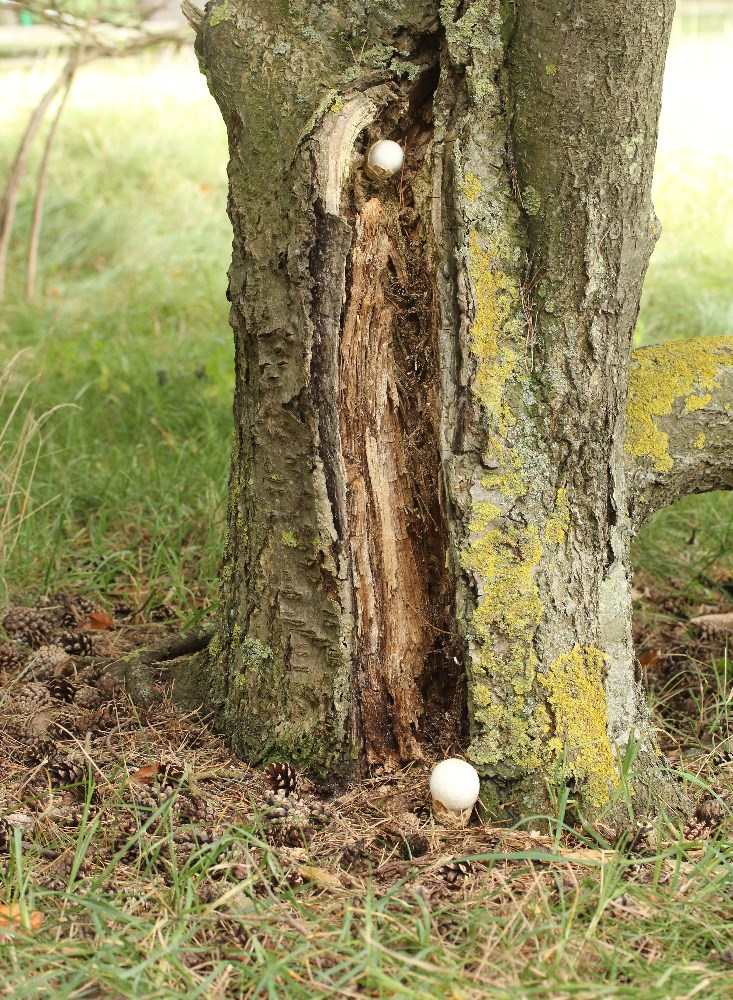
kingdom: Fungi
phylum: Basidiomycota
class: Agaricomycetes
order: Agaricales
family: Pluteaceae
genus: Volvariella
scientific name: Volvariella bombycina
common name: silkehåret posesvamp
